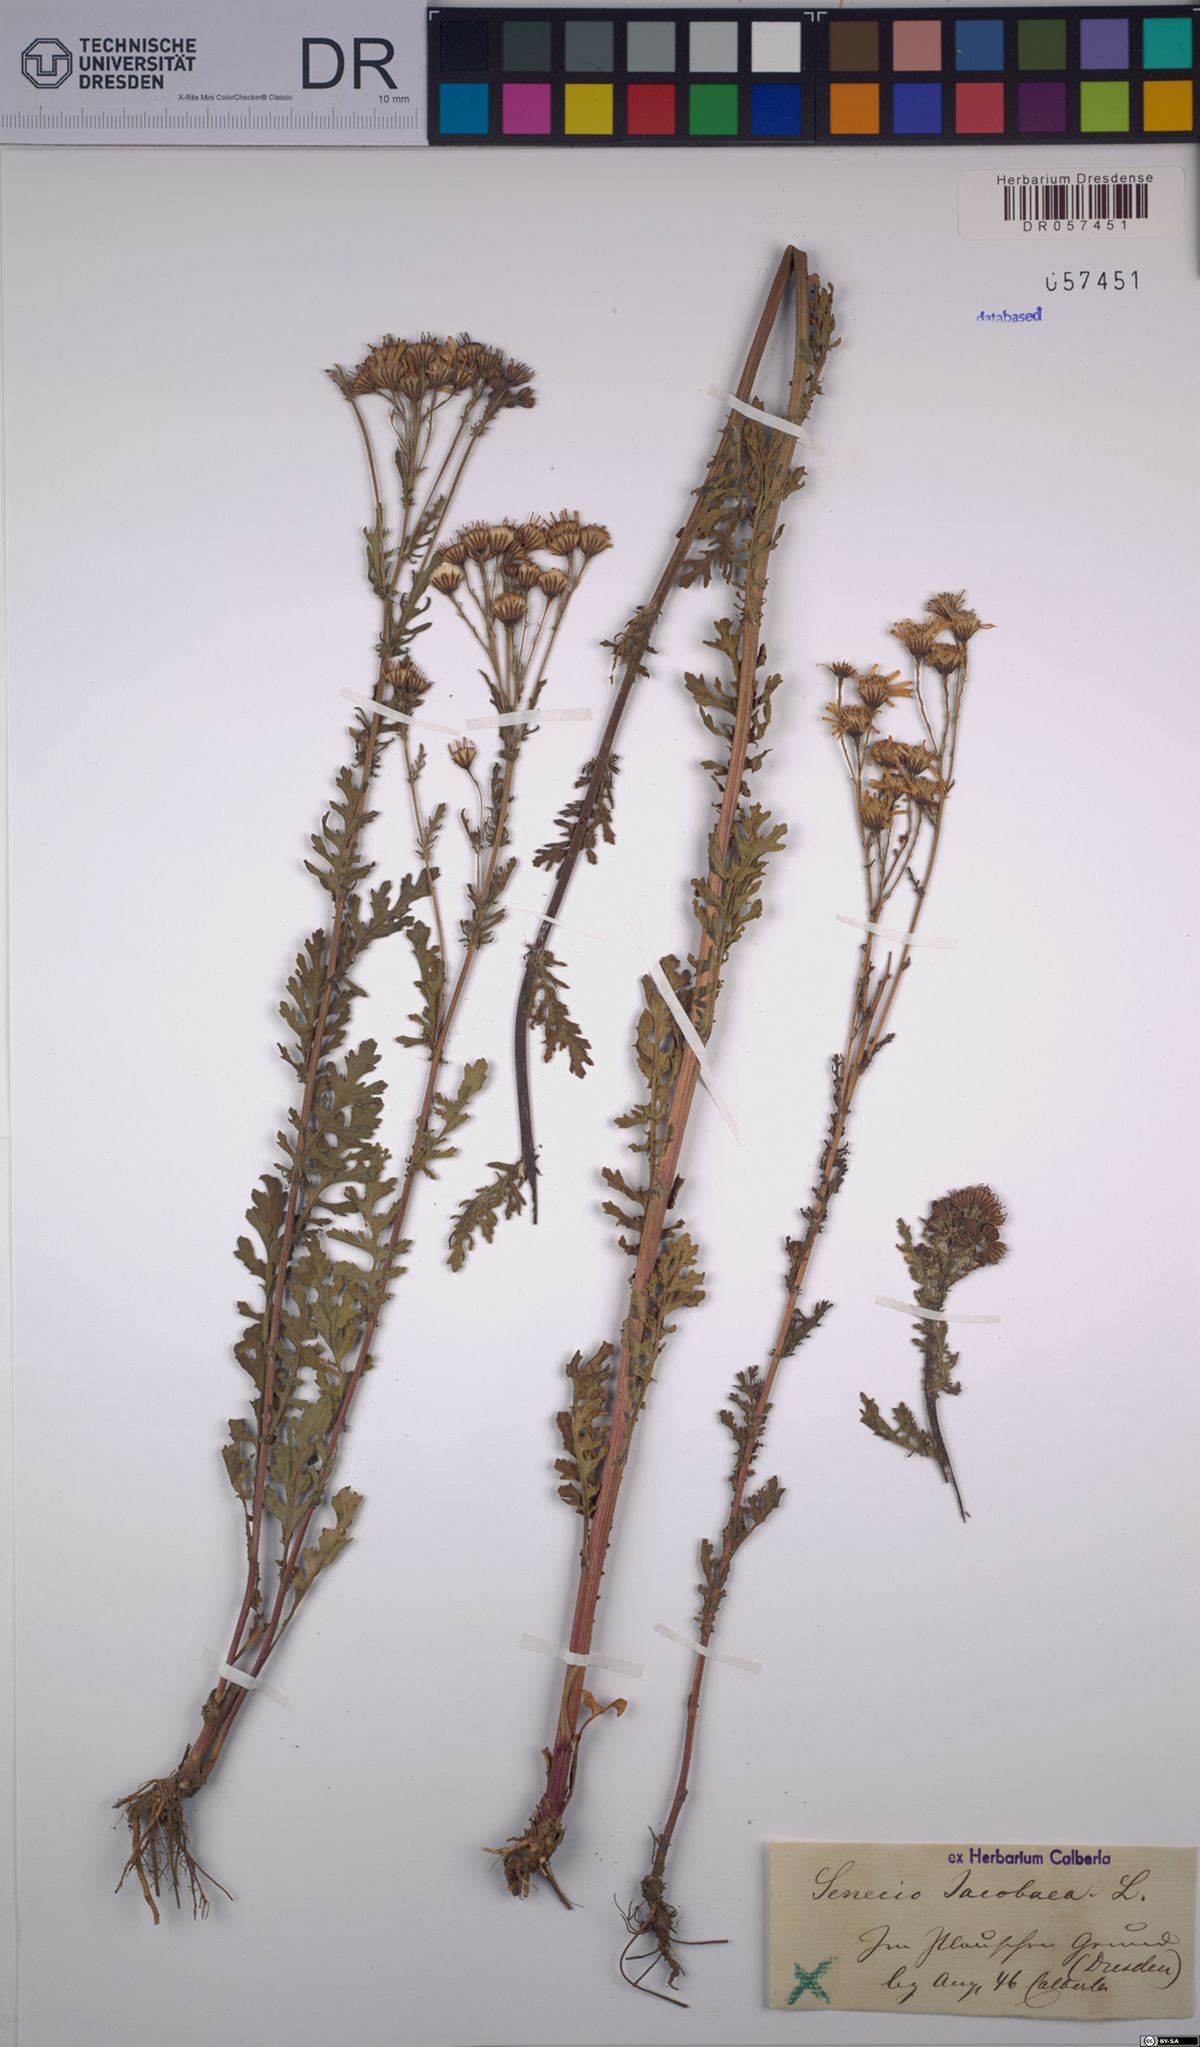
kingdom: Plantae
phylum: Tracheophyta
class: Magnoliopsida
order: Asterales
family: Asteraceae
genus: Jacobaea
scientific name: Jacobaea vulgaris
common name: Stinking willie
